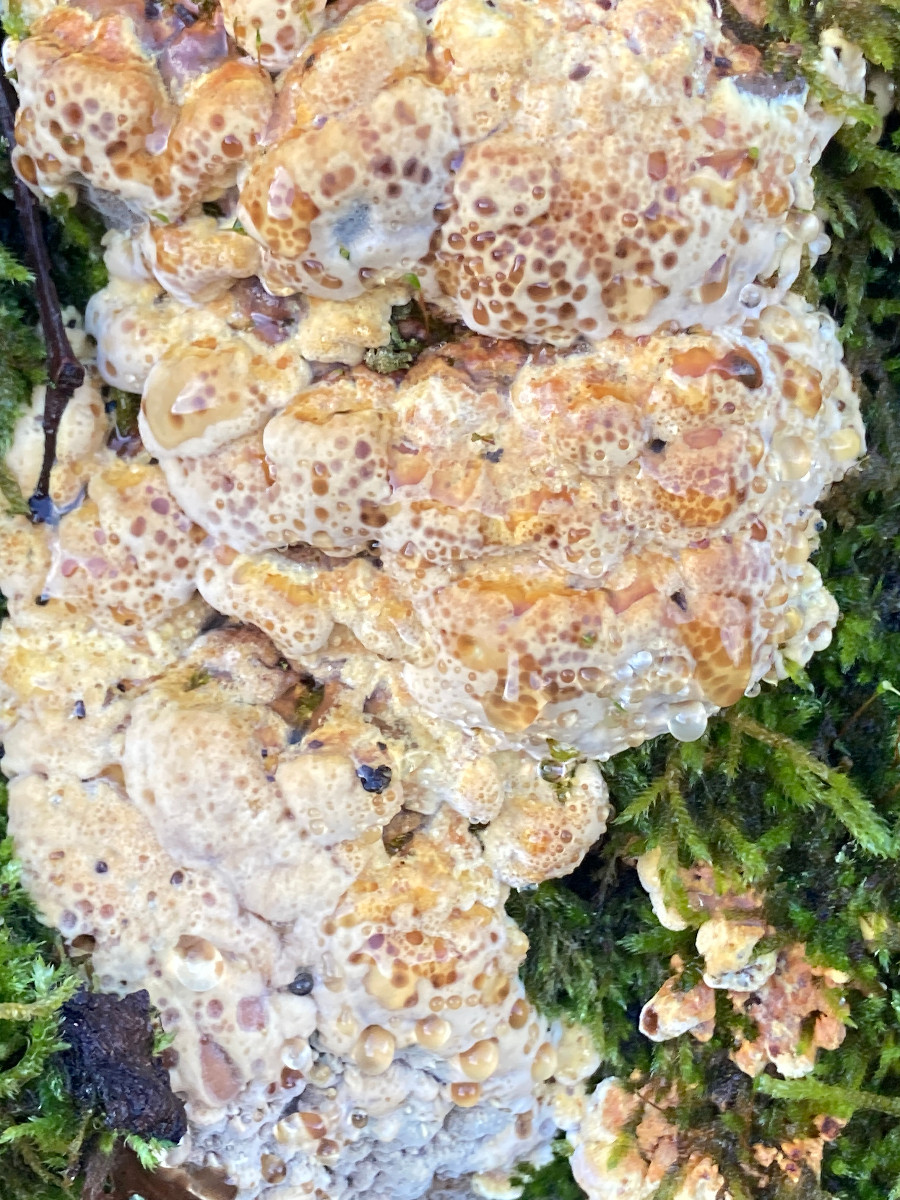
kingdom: Fungi
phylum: Basidiomycota
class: Agaricomycetes
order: Hymenochaetales
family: Hymenochaetaceae
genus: Xanthoporia
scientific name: Xanthoporia radiata
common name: elle-spejlporesvamp
